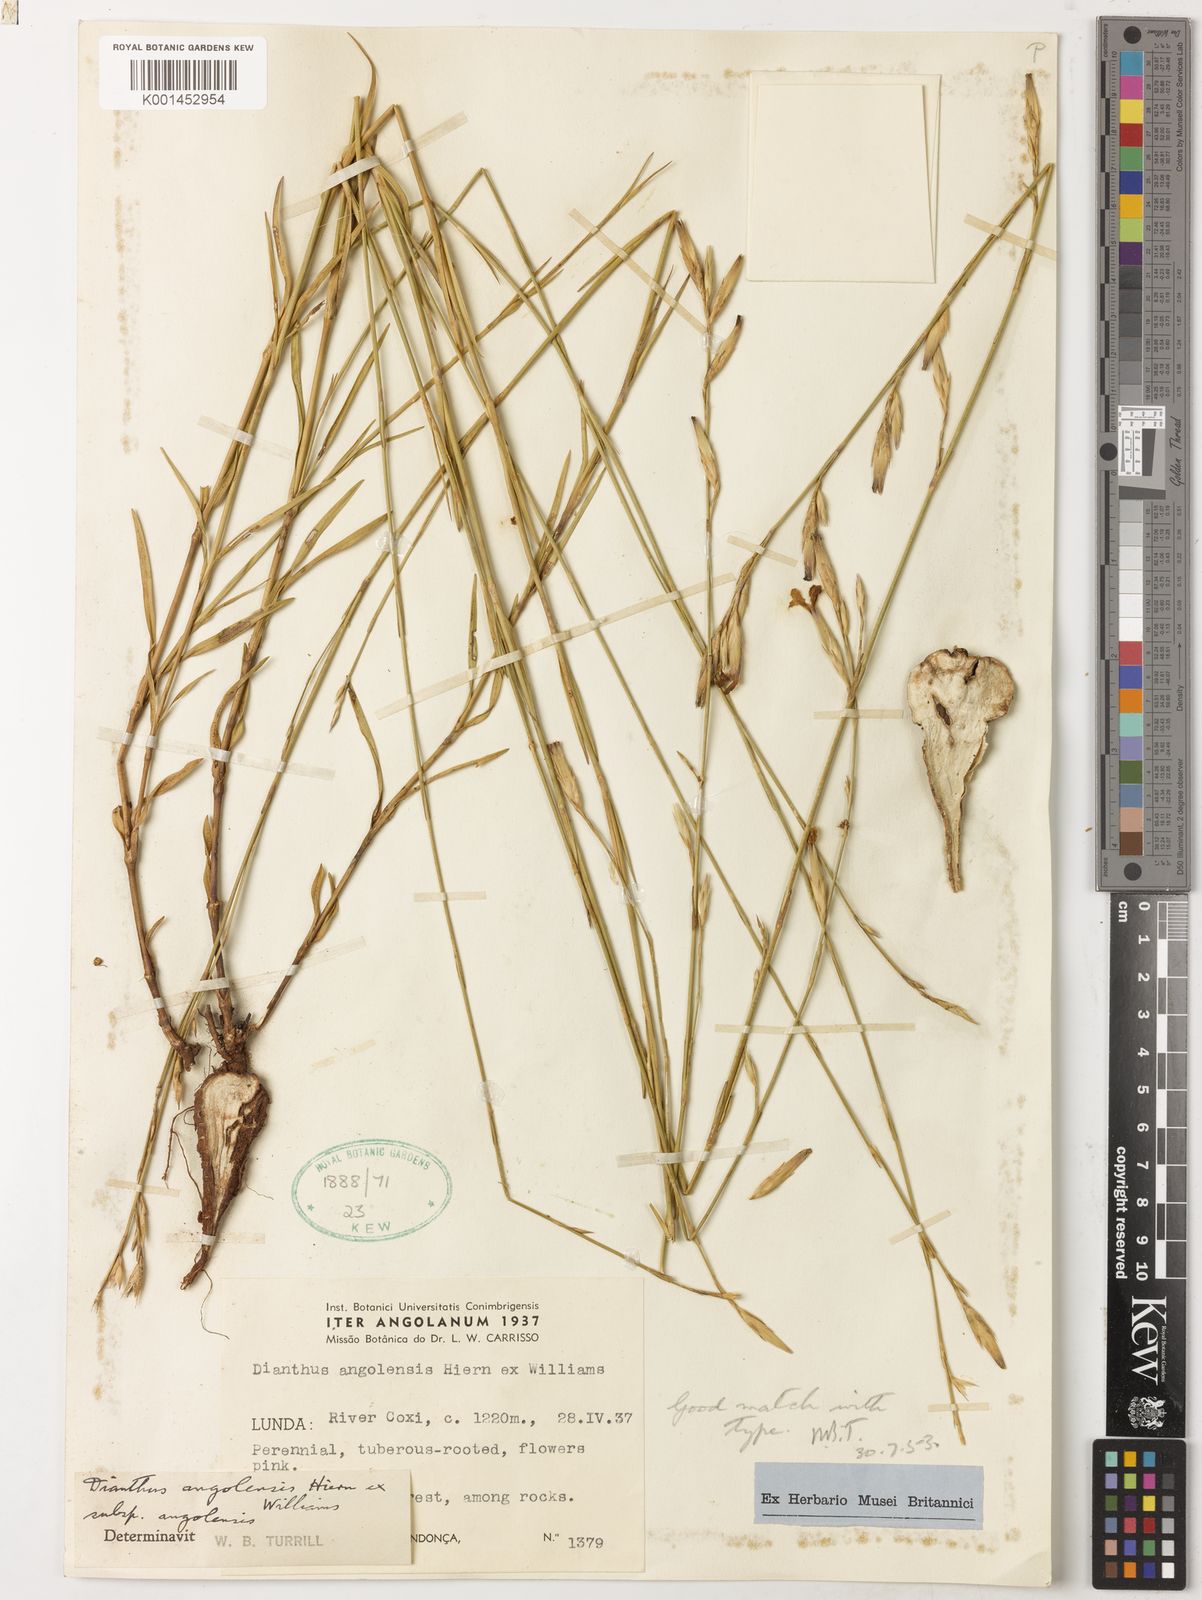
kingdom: Plantae
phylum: Tracheophyta
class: Magnoliopsida
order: Caryophyllales
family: Caryophyllaceae
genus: Dianthus
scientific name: Dianthus angolensis
